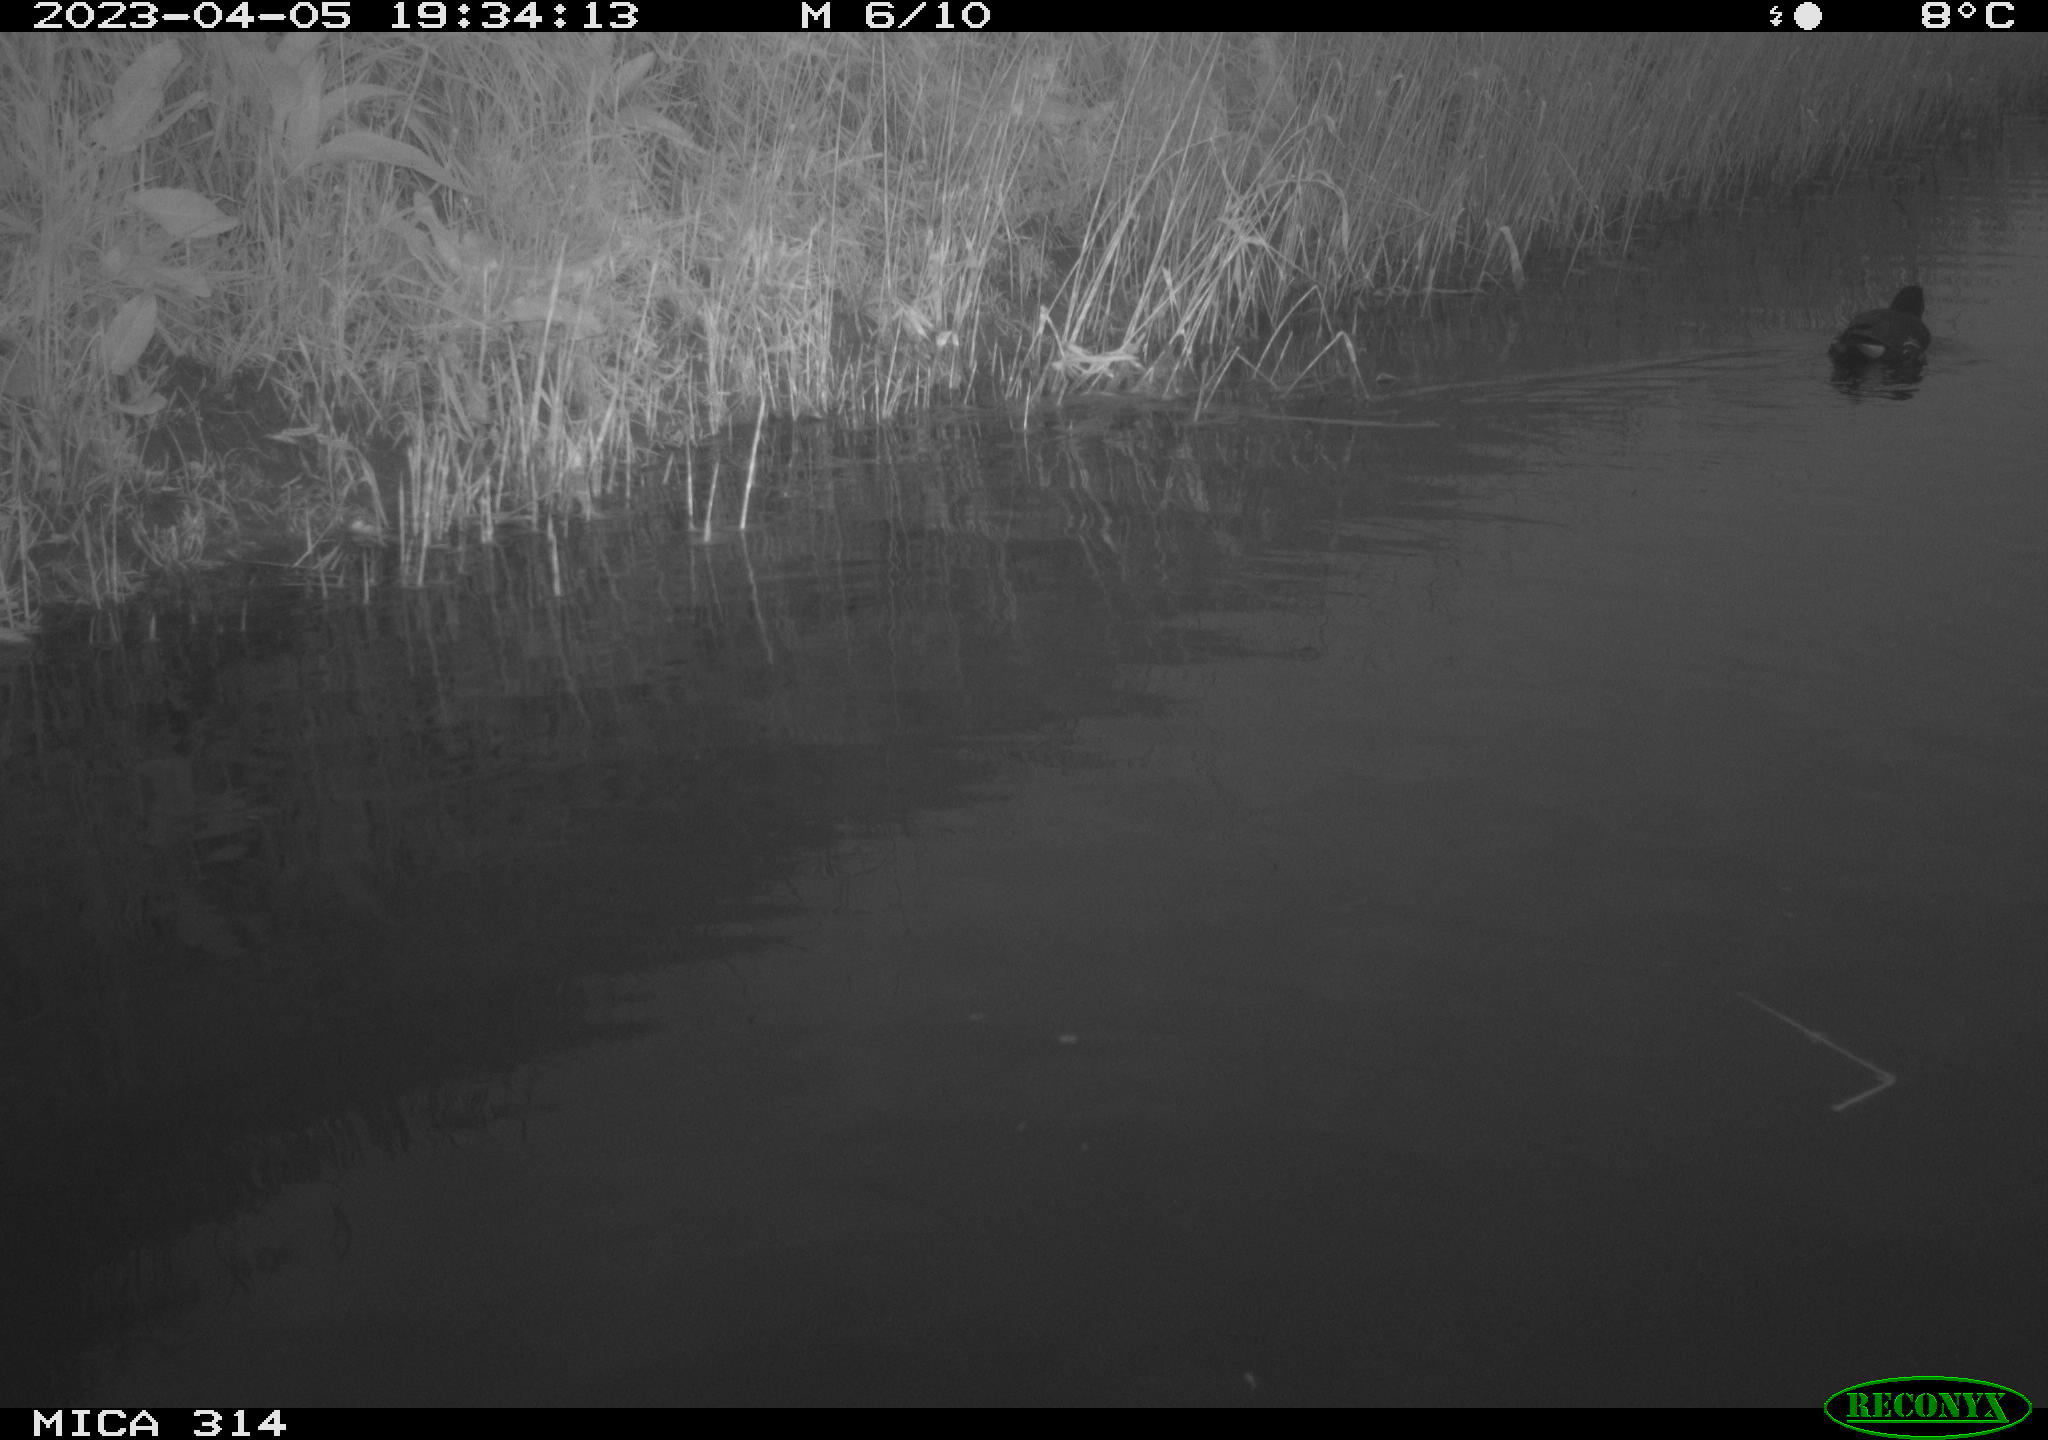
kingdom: Animalia
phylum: Chordata
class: Aves
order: Gruiformes
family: Rallidae
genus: Gallinula
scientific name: Gallinula chloropus
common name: Common moorhen
